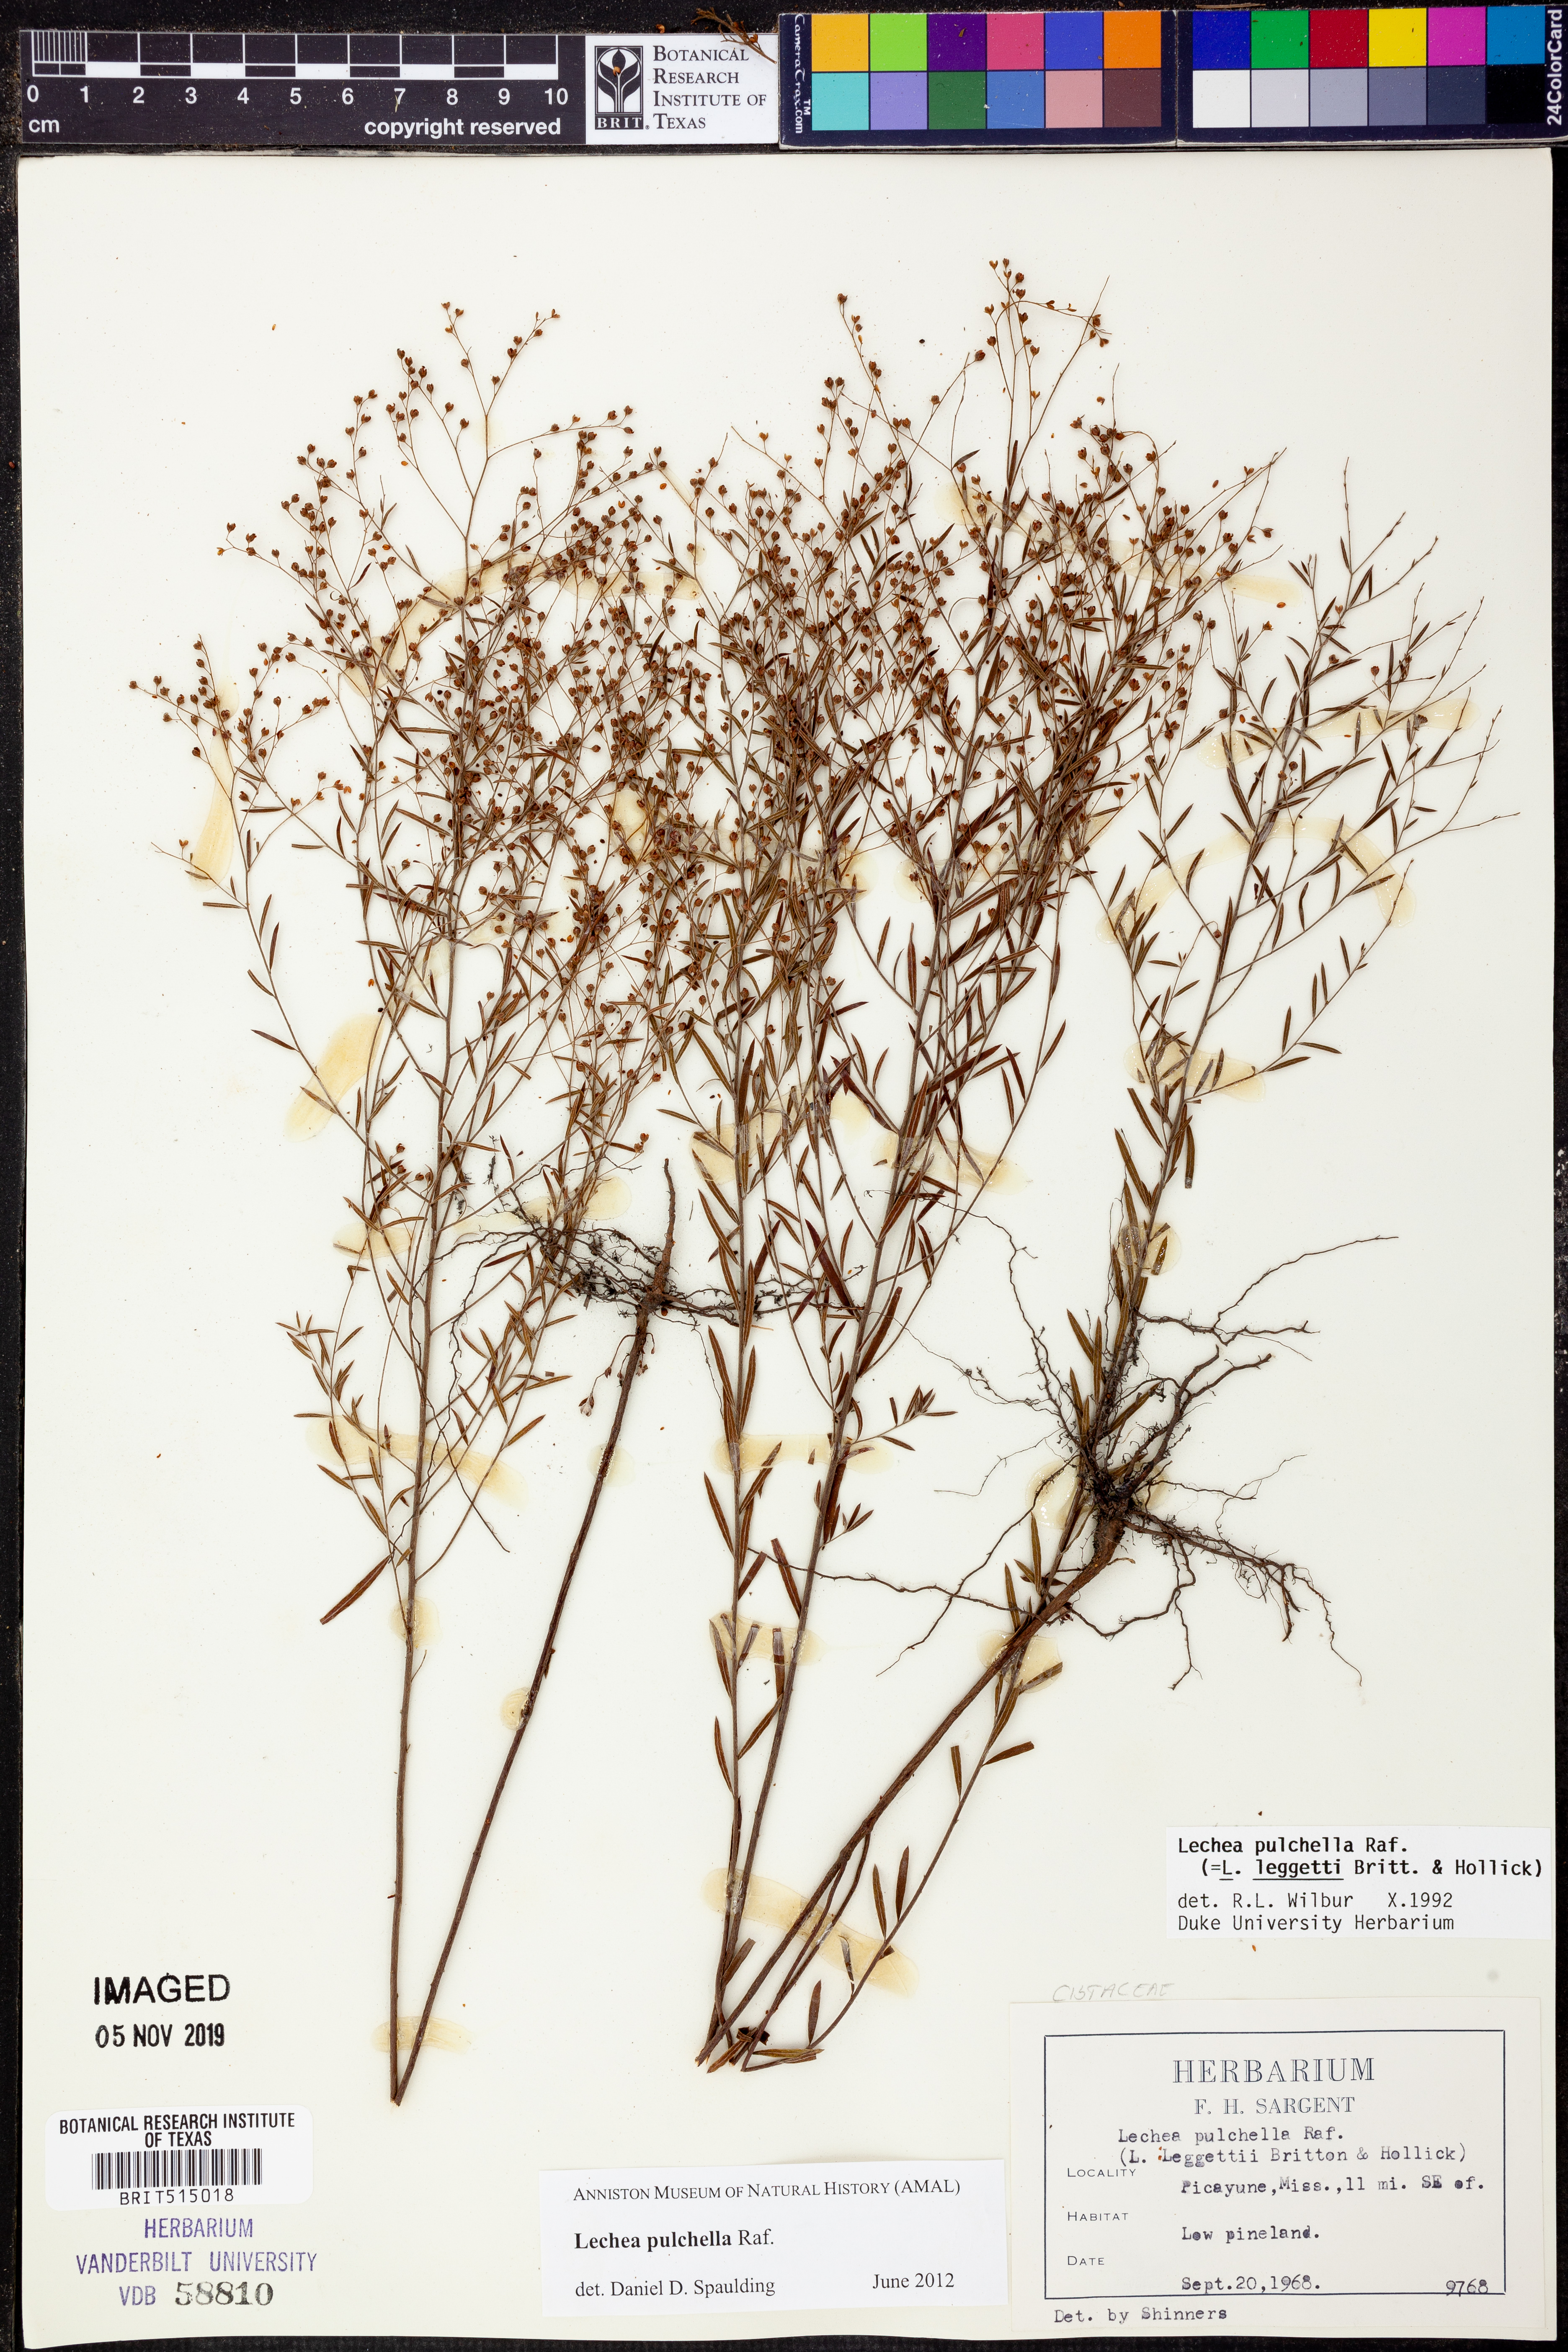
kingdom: Plantae
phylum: Tracheophyta
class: Magnoliopsida
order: Malvales
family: Cistaceae
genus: Lechea
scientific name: Lechea pulchella
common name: Leggett's pinweed
